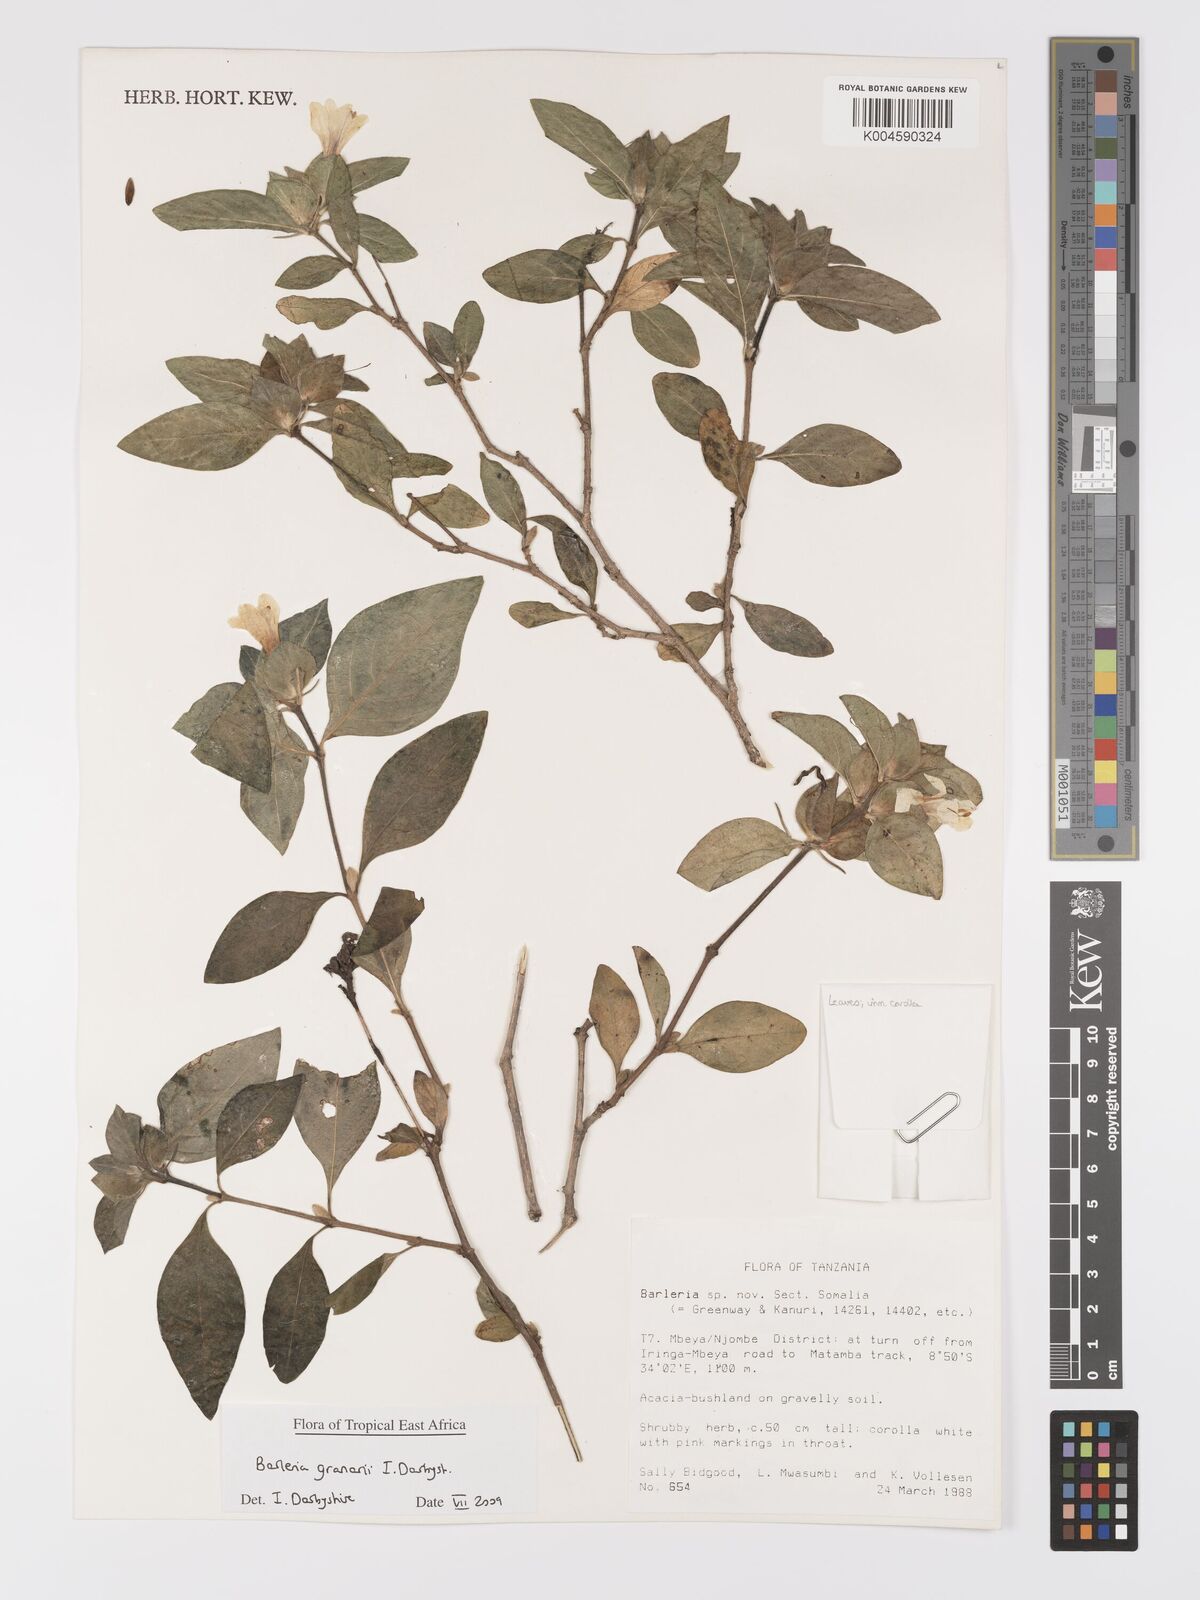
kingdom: Plantae
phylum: Tracheophyta
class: Magnoliopsida
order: Lamiales
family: Acanthaceae
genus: Barleria
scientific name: Barleria granarii
